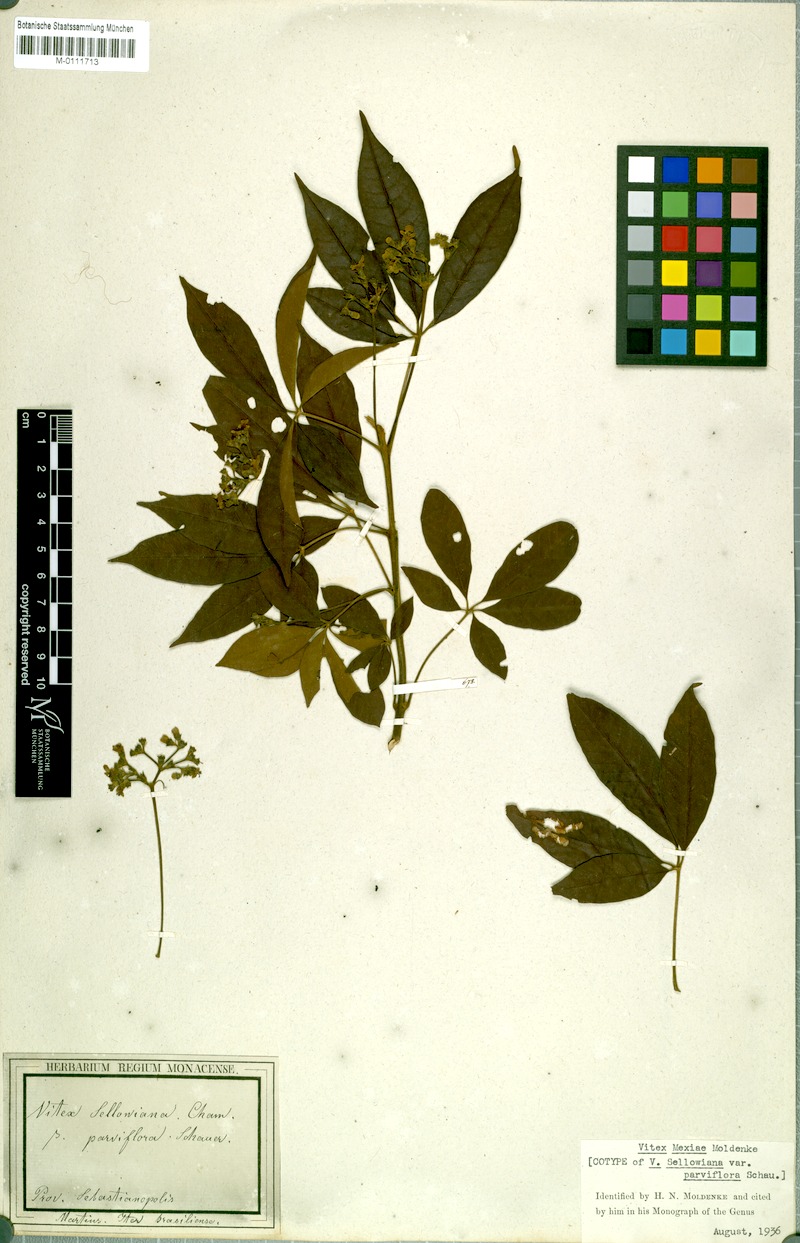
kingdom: Plantae
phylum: Tracheophyta
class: Magnoliopsida
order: Lamiales
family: Lamiaceae
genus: Vitex
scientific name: Vitex sellowiana
